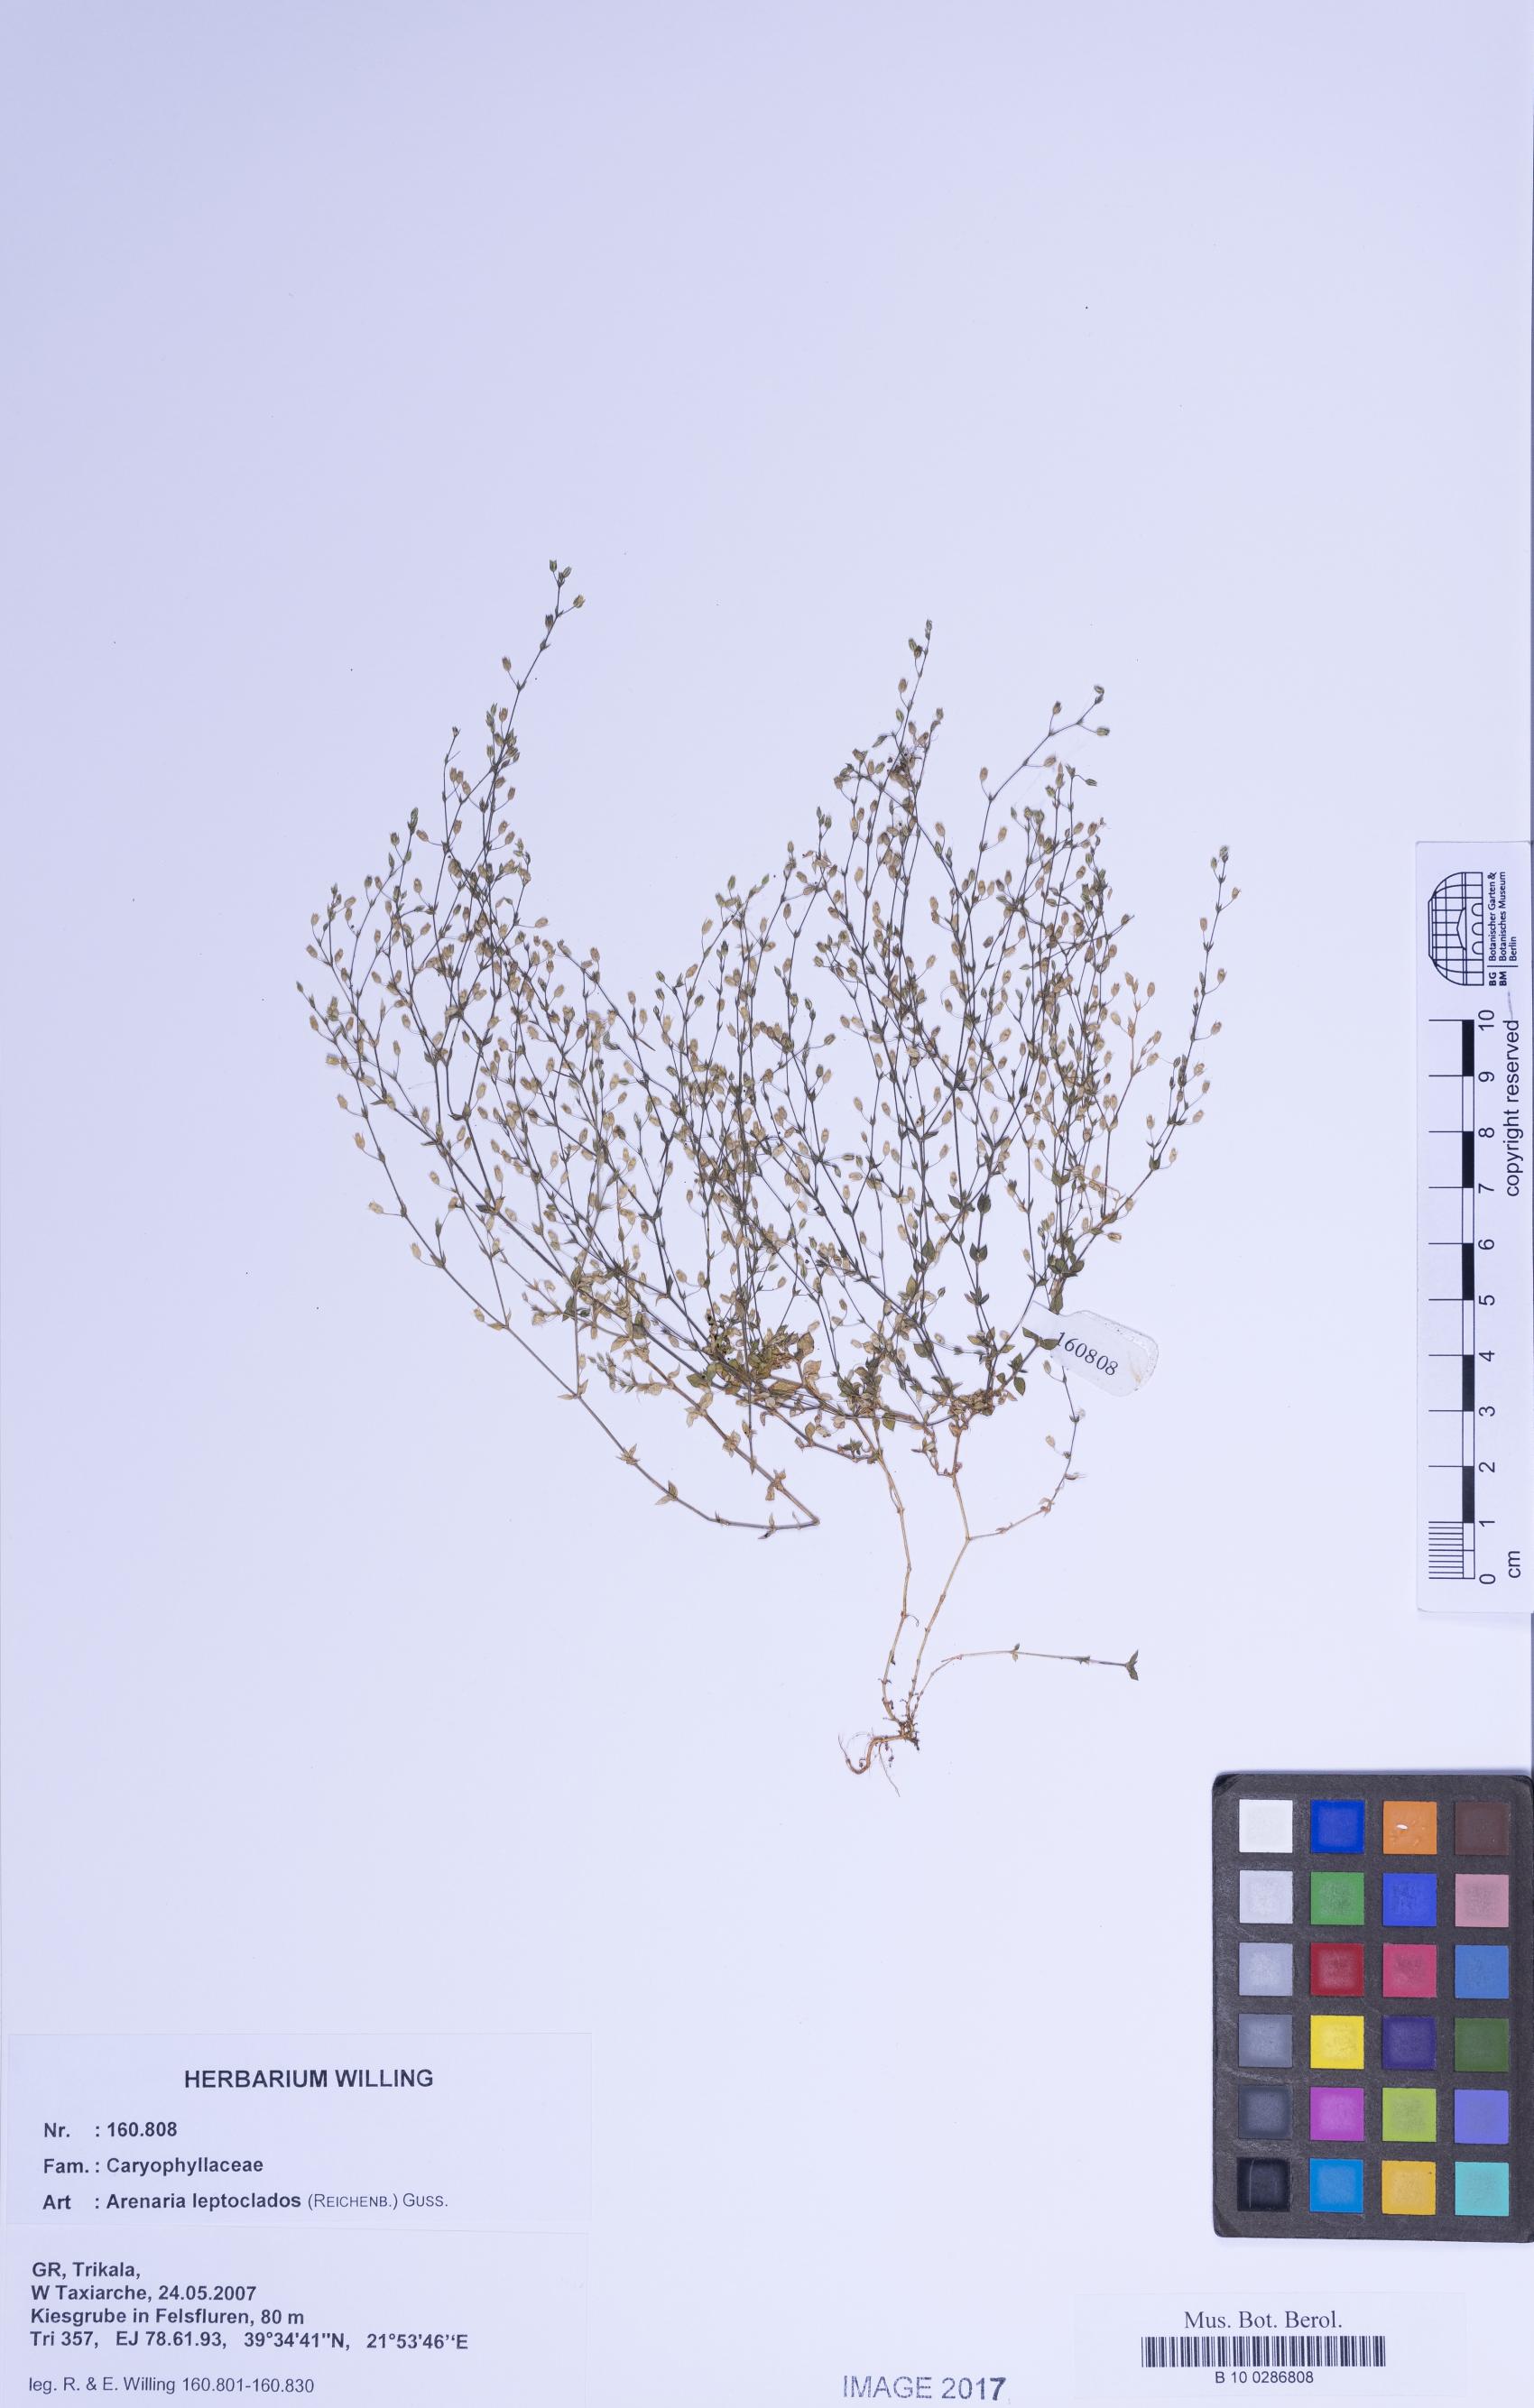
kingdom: Plantae
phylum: Tracheophyta
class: Magnoliopsida
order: Caryophyllales
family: Caryophyllaceae
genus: Arenaria
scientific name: Arenaria leptoclados
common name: Thyme-leaved sandwort
